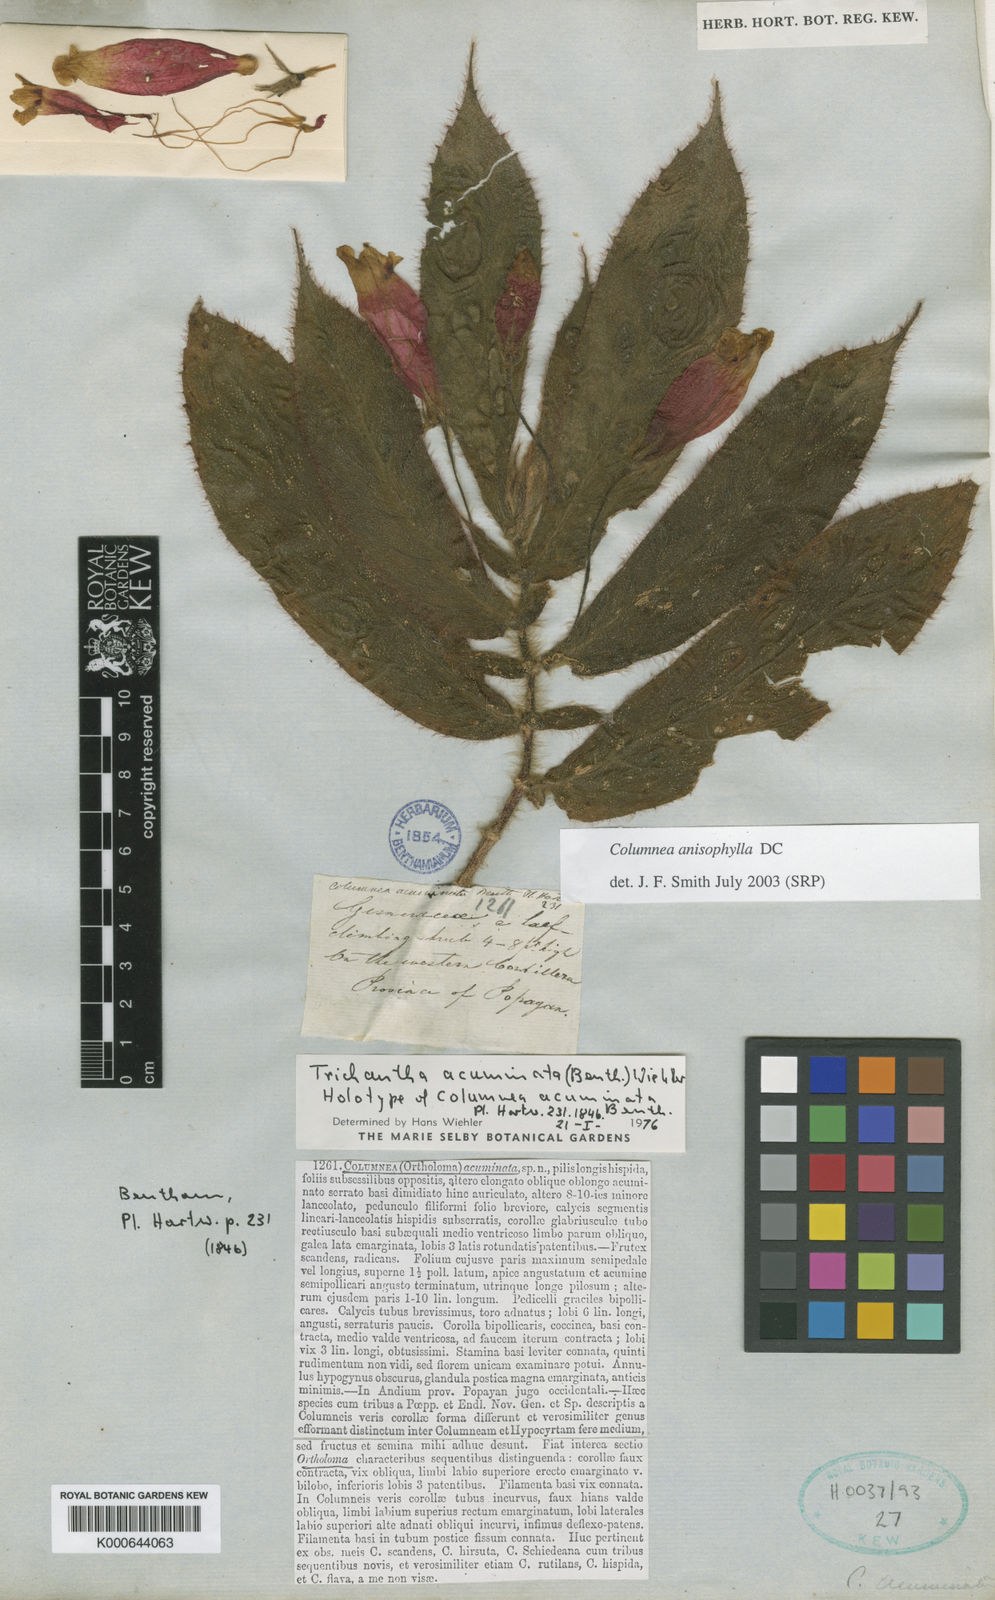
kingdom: Plantae
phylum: Tracheophyta
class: Magnoliopsida
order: Lamiales
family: Gesneriaceae
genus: Columnea
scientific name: Columnea anisophylla
